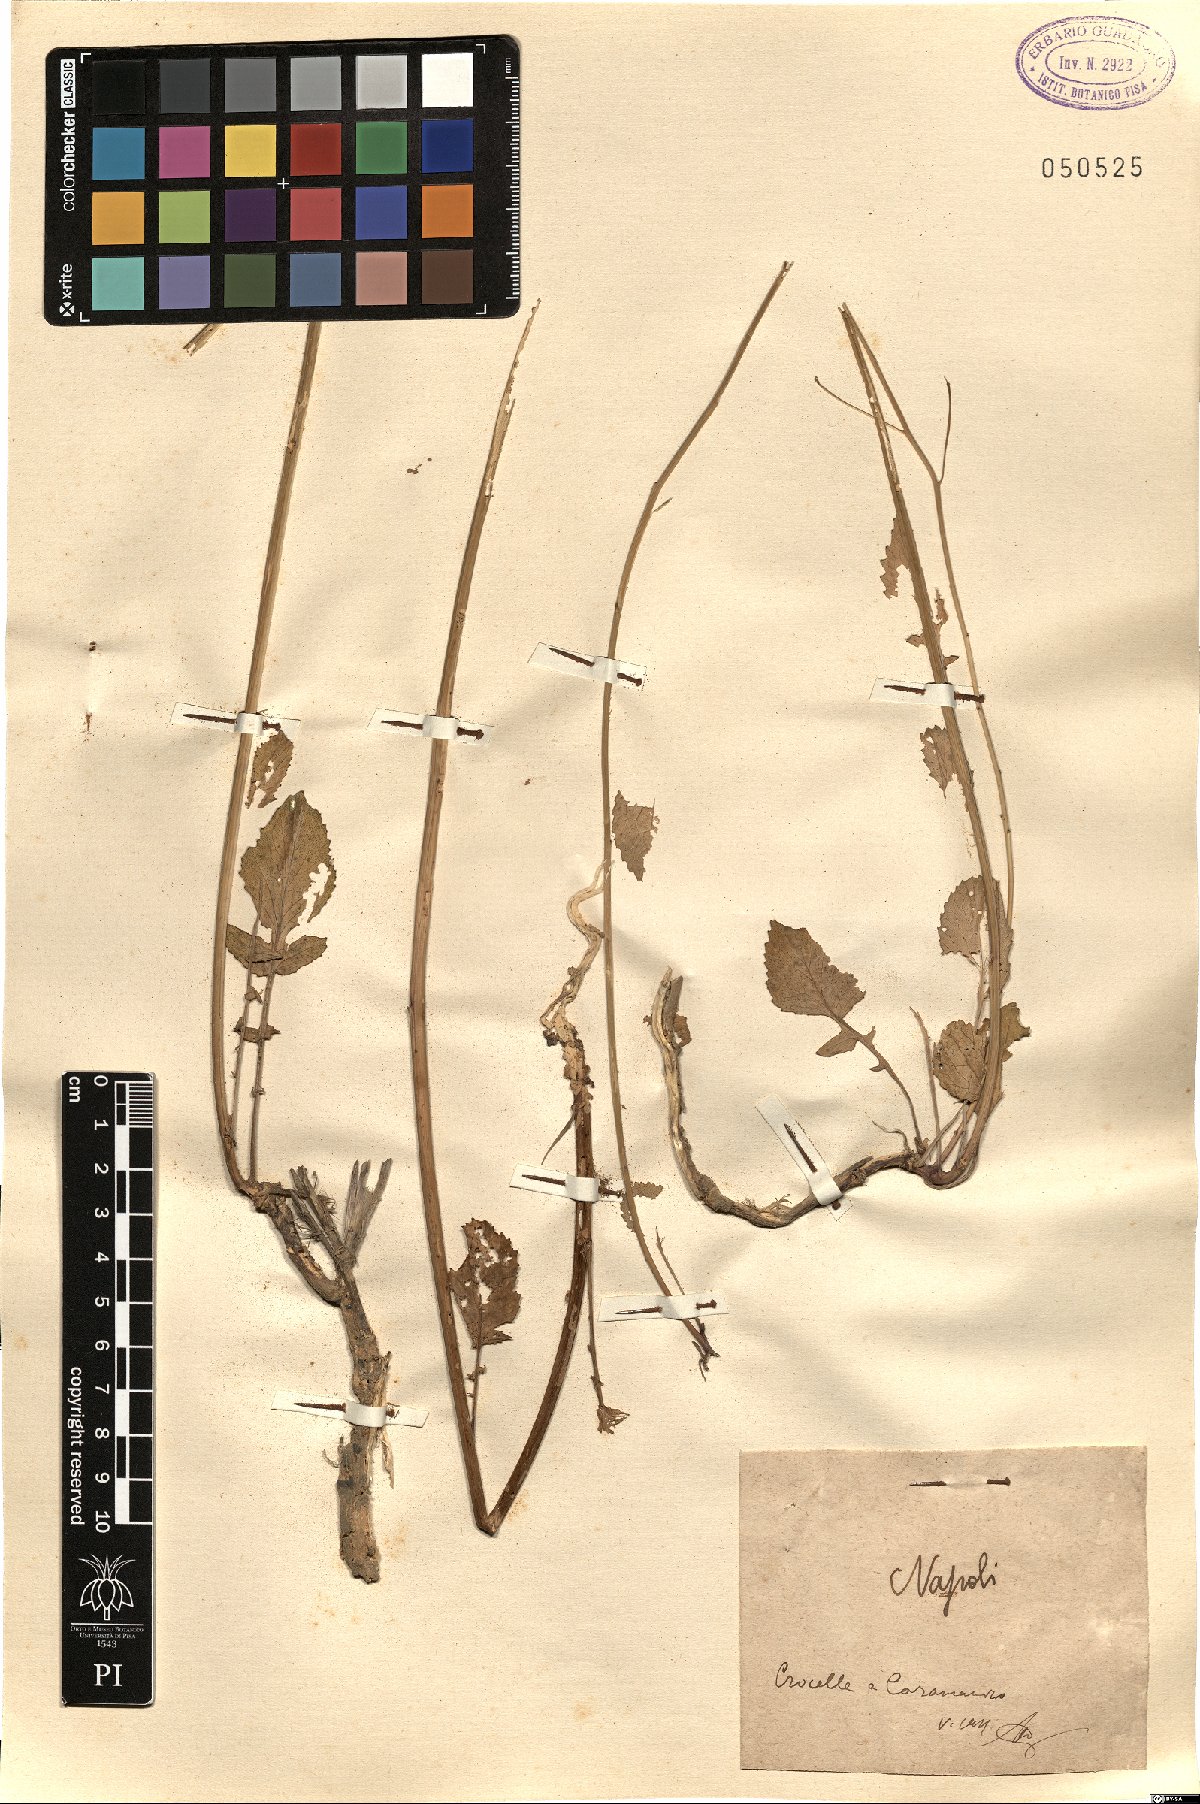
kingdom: Plantae
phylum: Tracheophyta
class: Magnoliopsida
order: Brassicales
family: Brassicaceae
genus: Raphanus
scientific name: Raphanus
